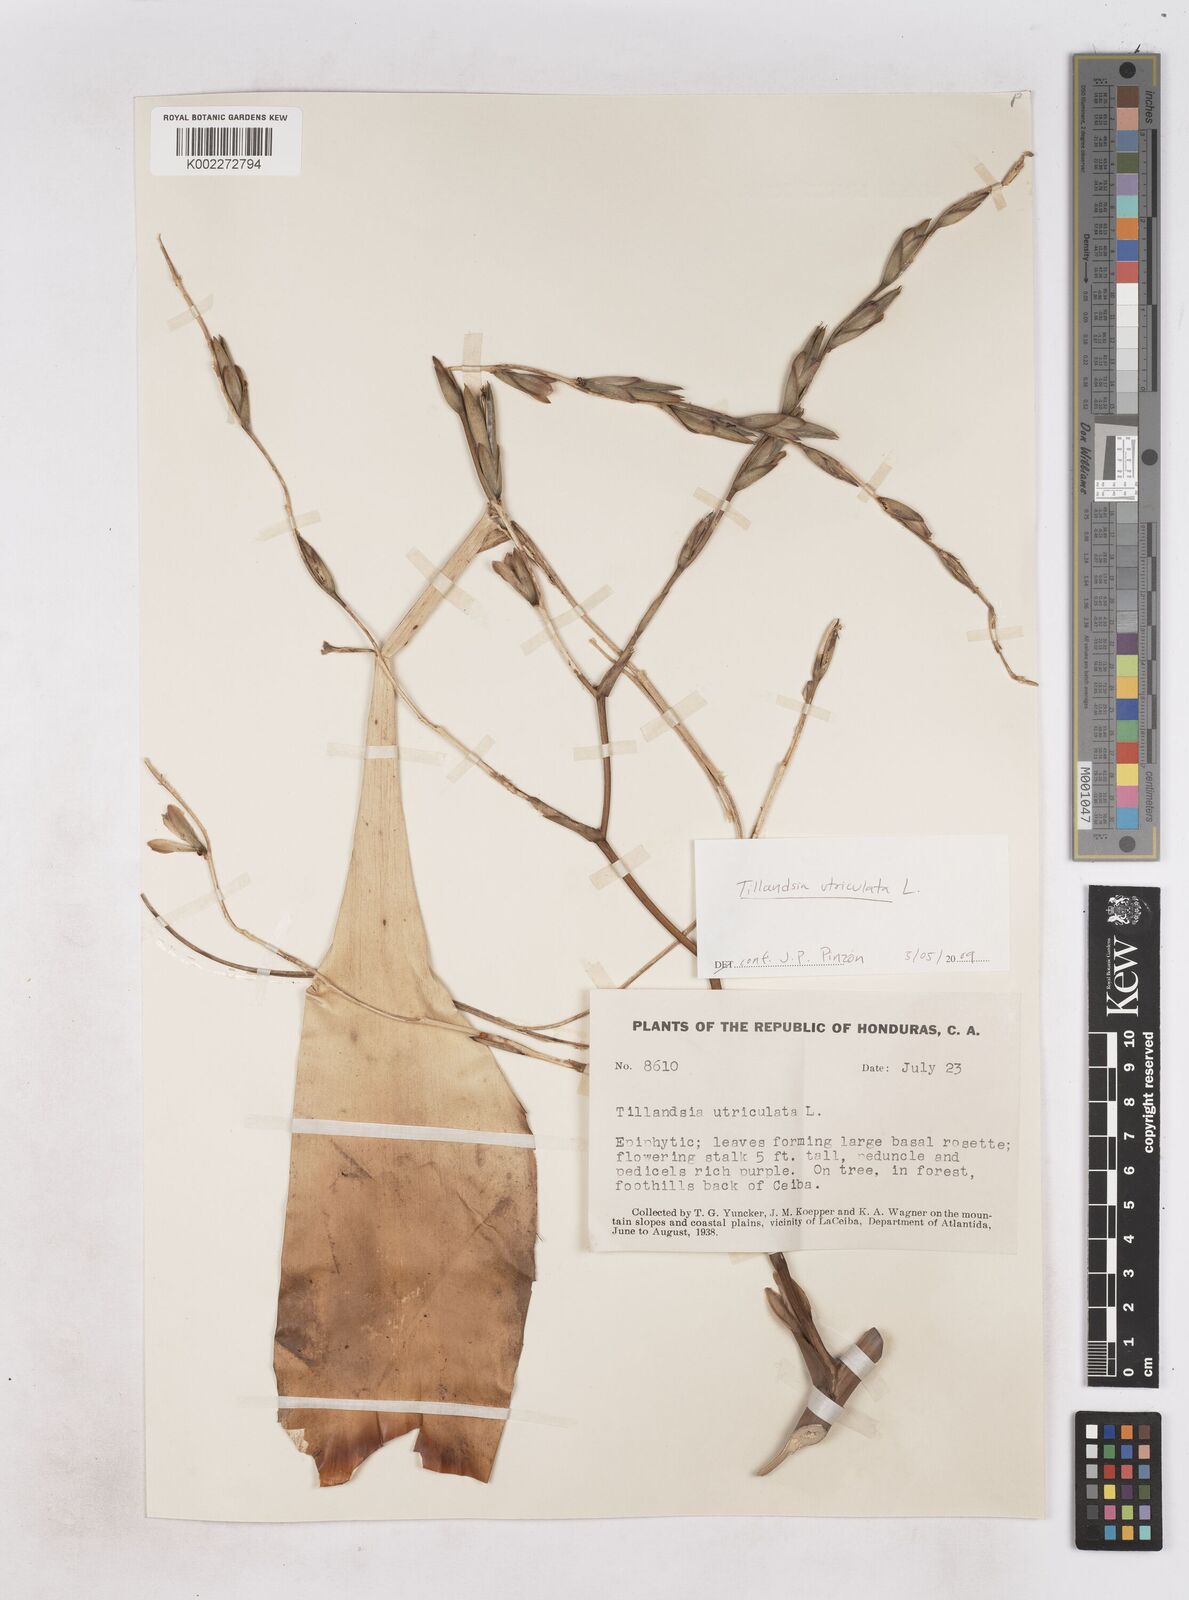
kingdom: Plantae
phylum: Tracheophyta
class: Liliopsida
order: Poales
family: Bromeliaceae
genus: Tillandsia
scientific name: Tillandsia utriculata
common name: Wild pine
